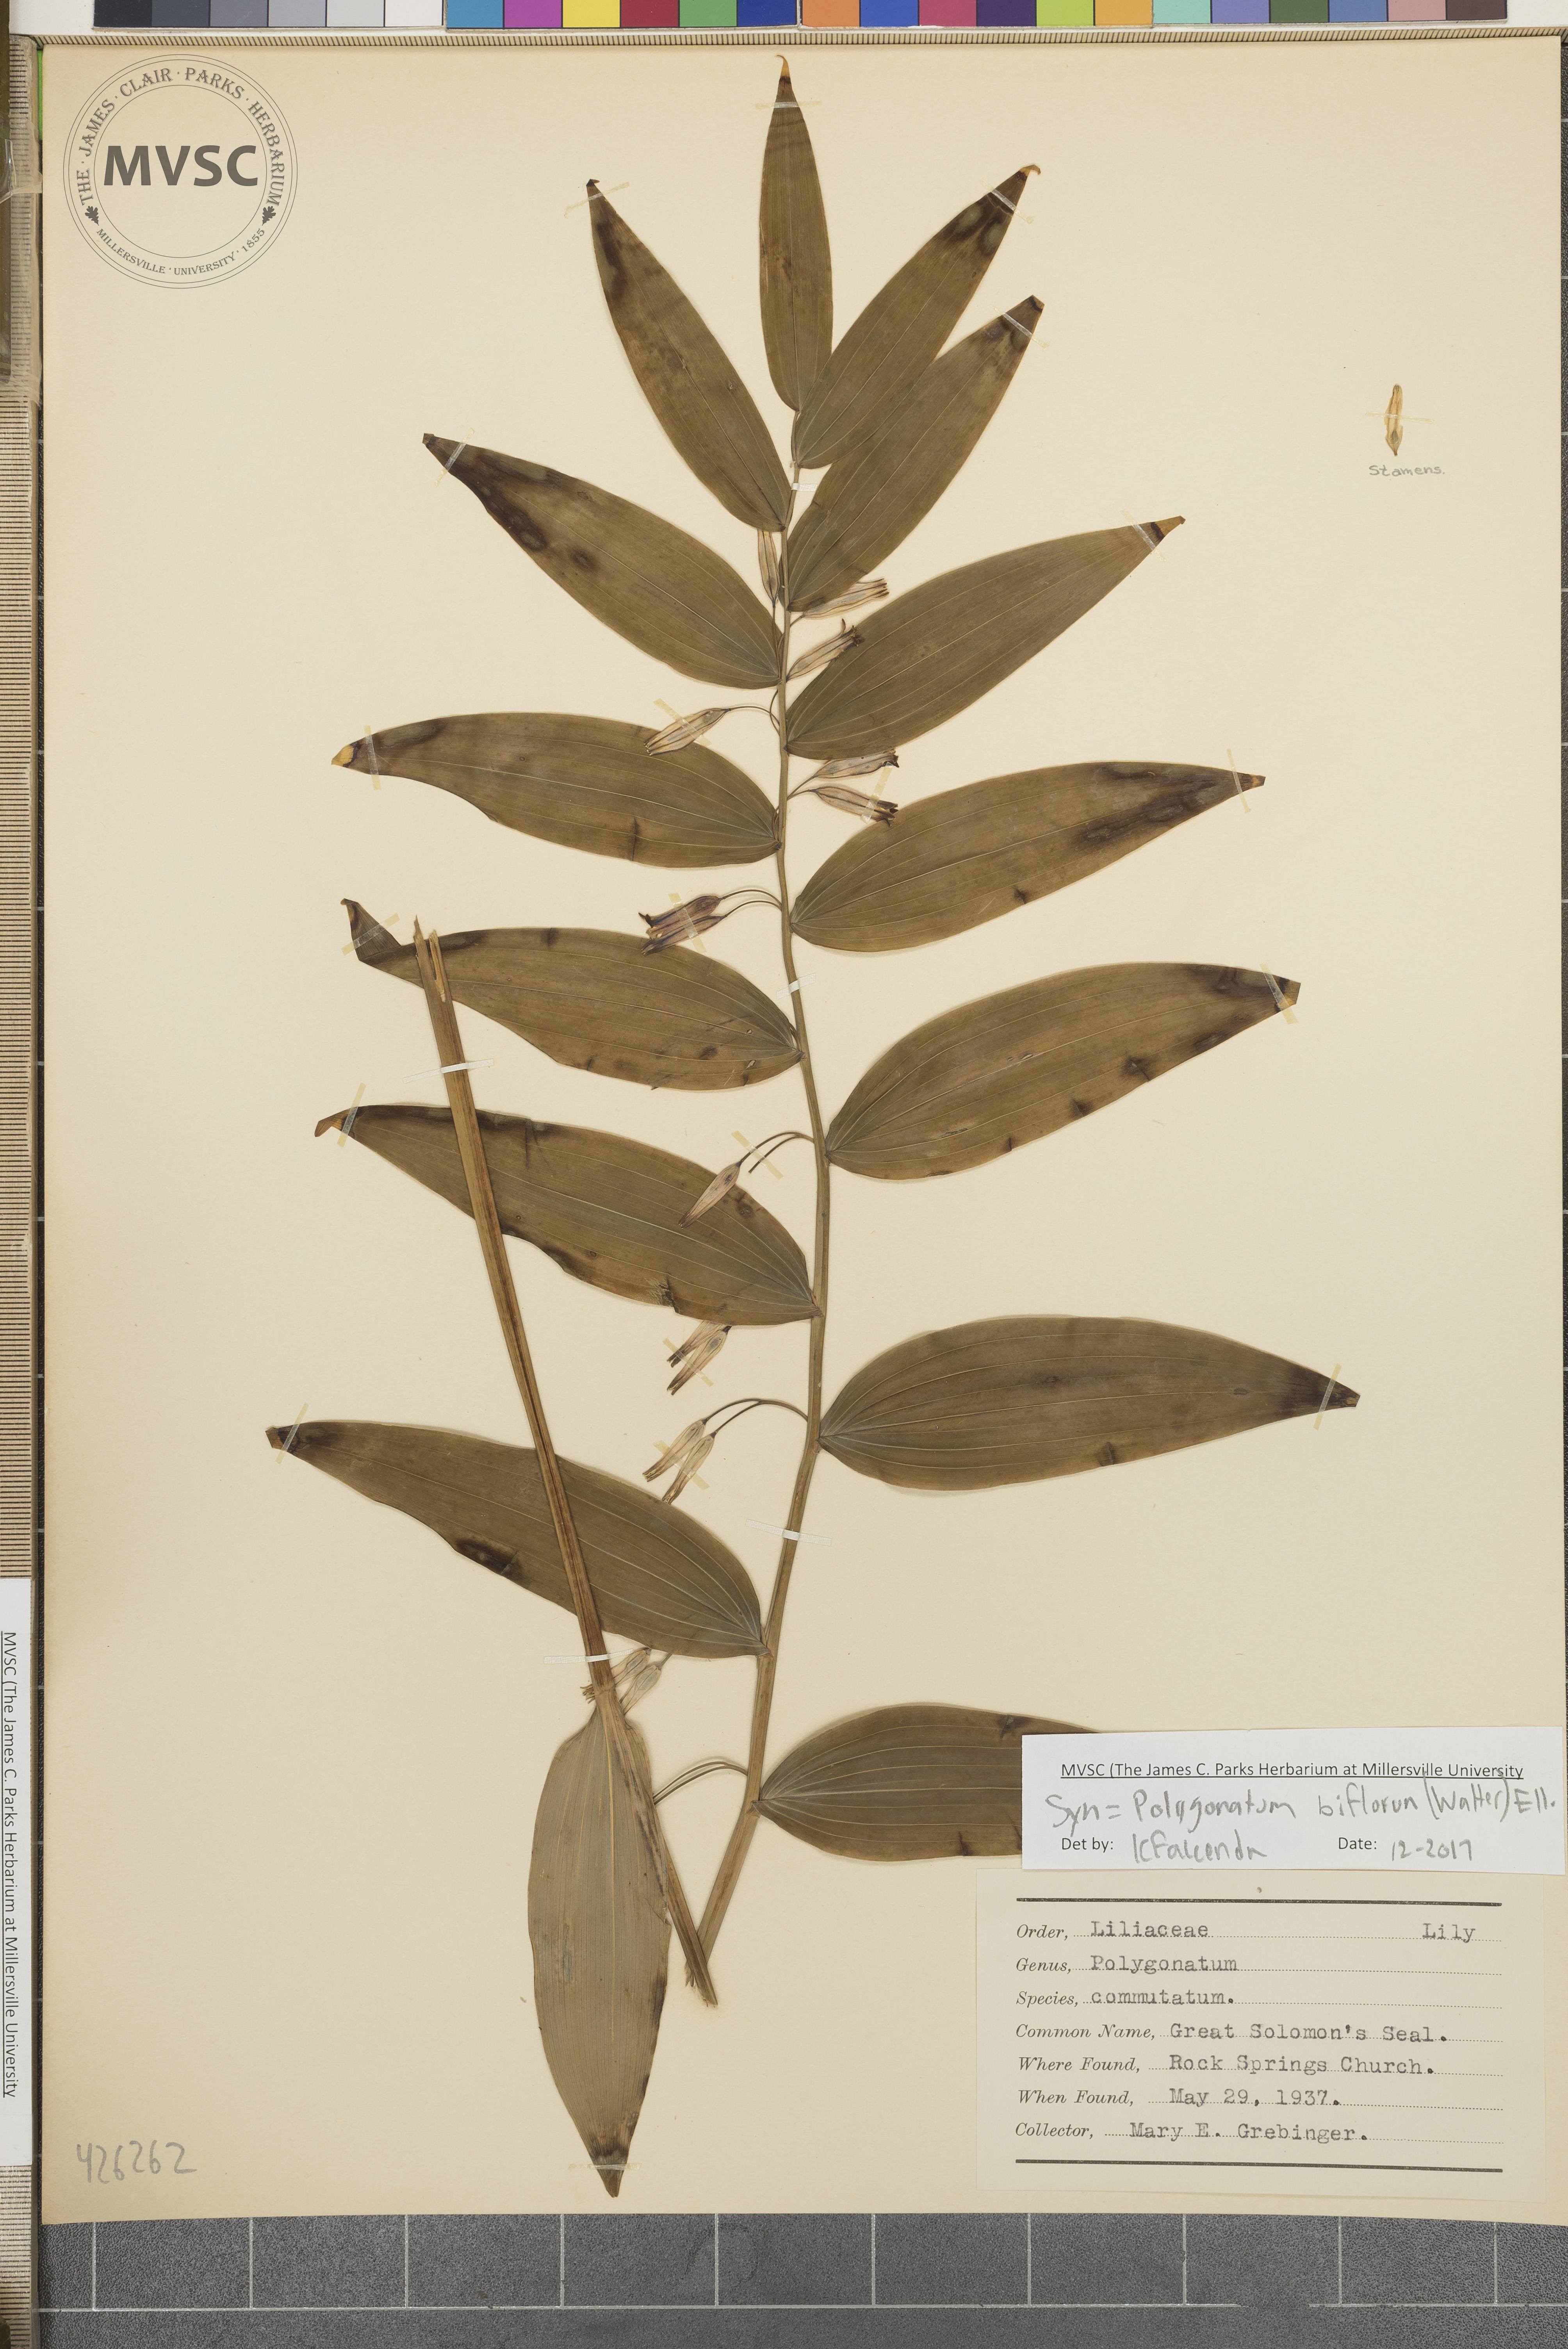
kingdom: Plantae
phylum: Tracheophyta
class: Liliopsida
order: Asparagales
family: Asparagaceae
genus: Polygonatum
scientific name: Polygonatum biflorum
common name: Great Solomon's seal
